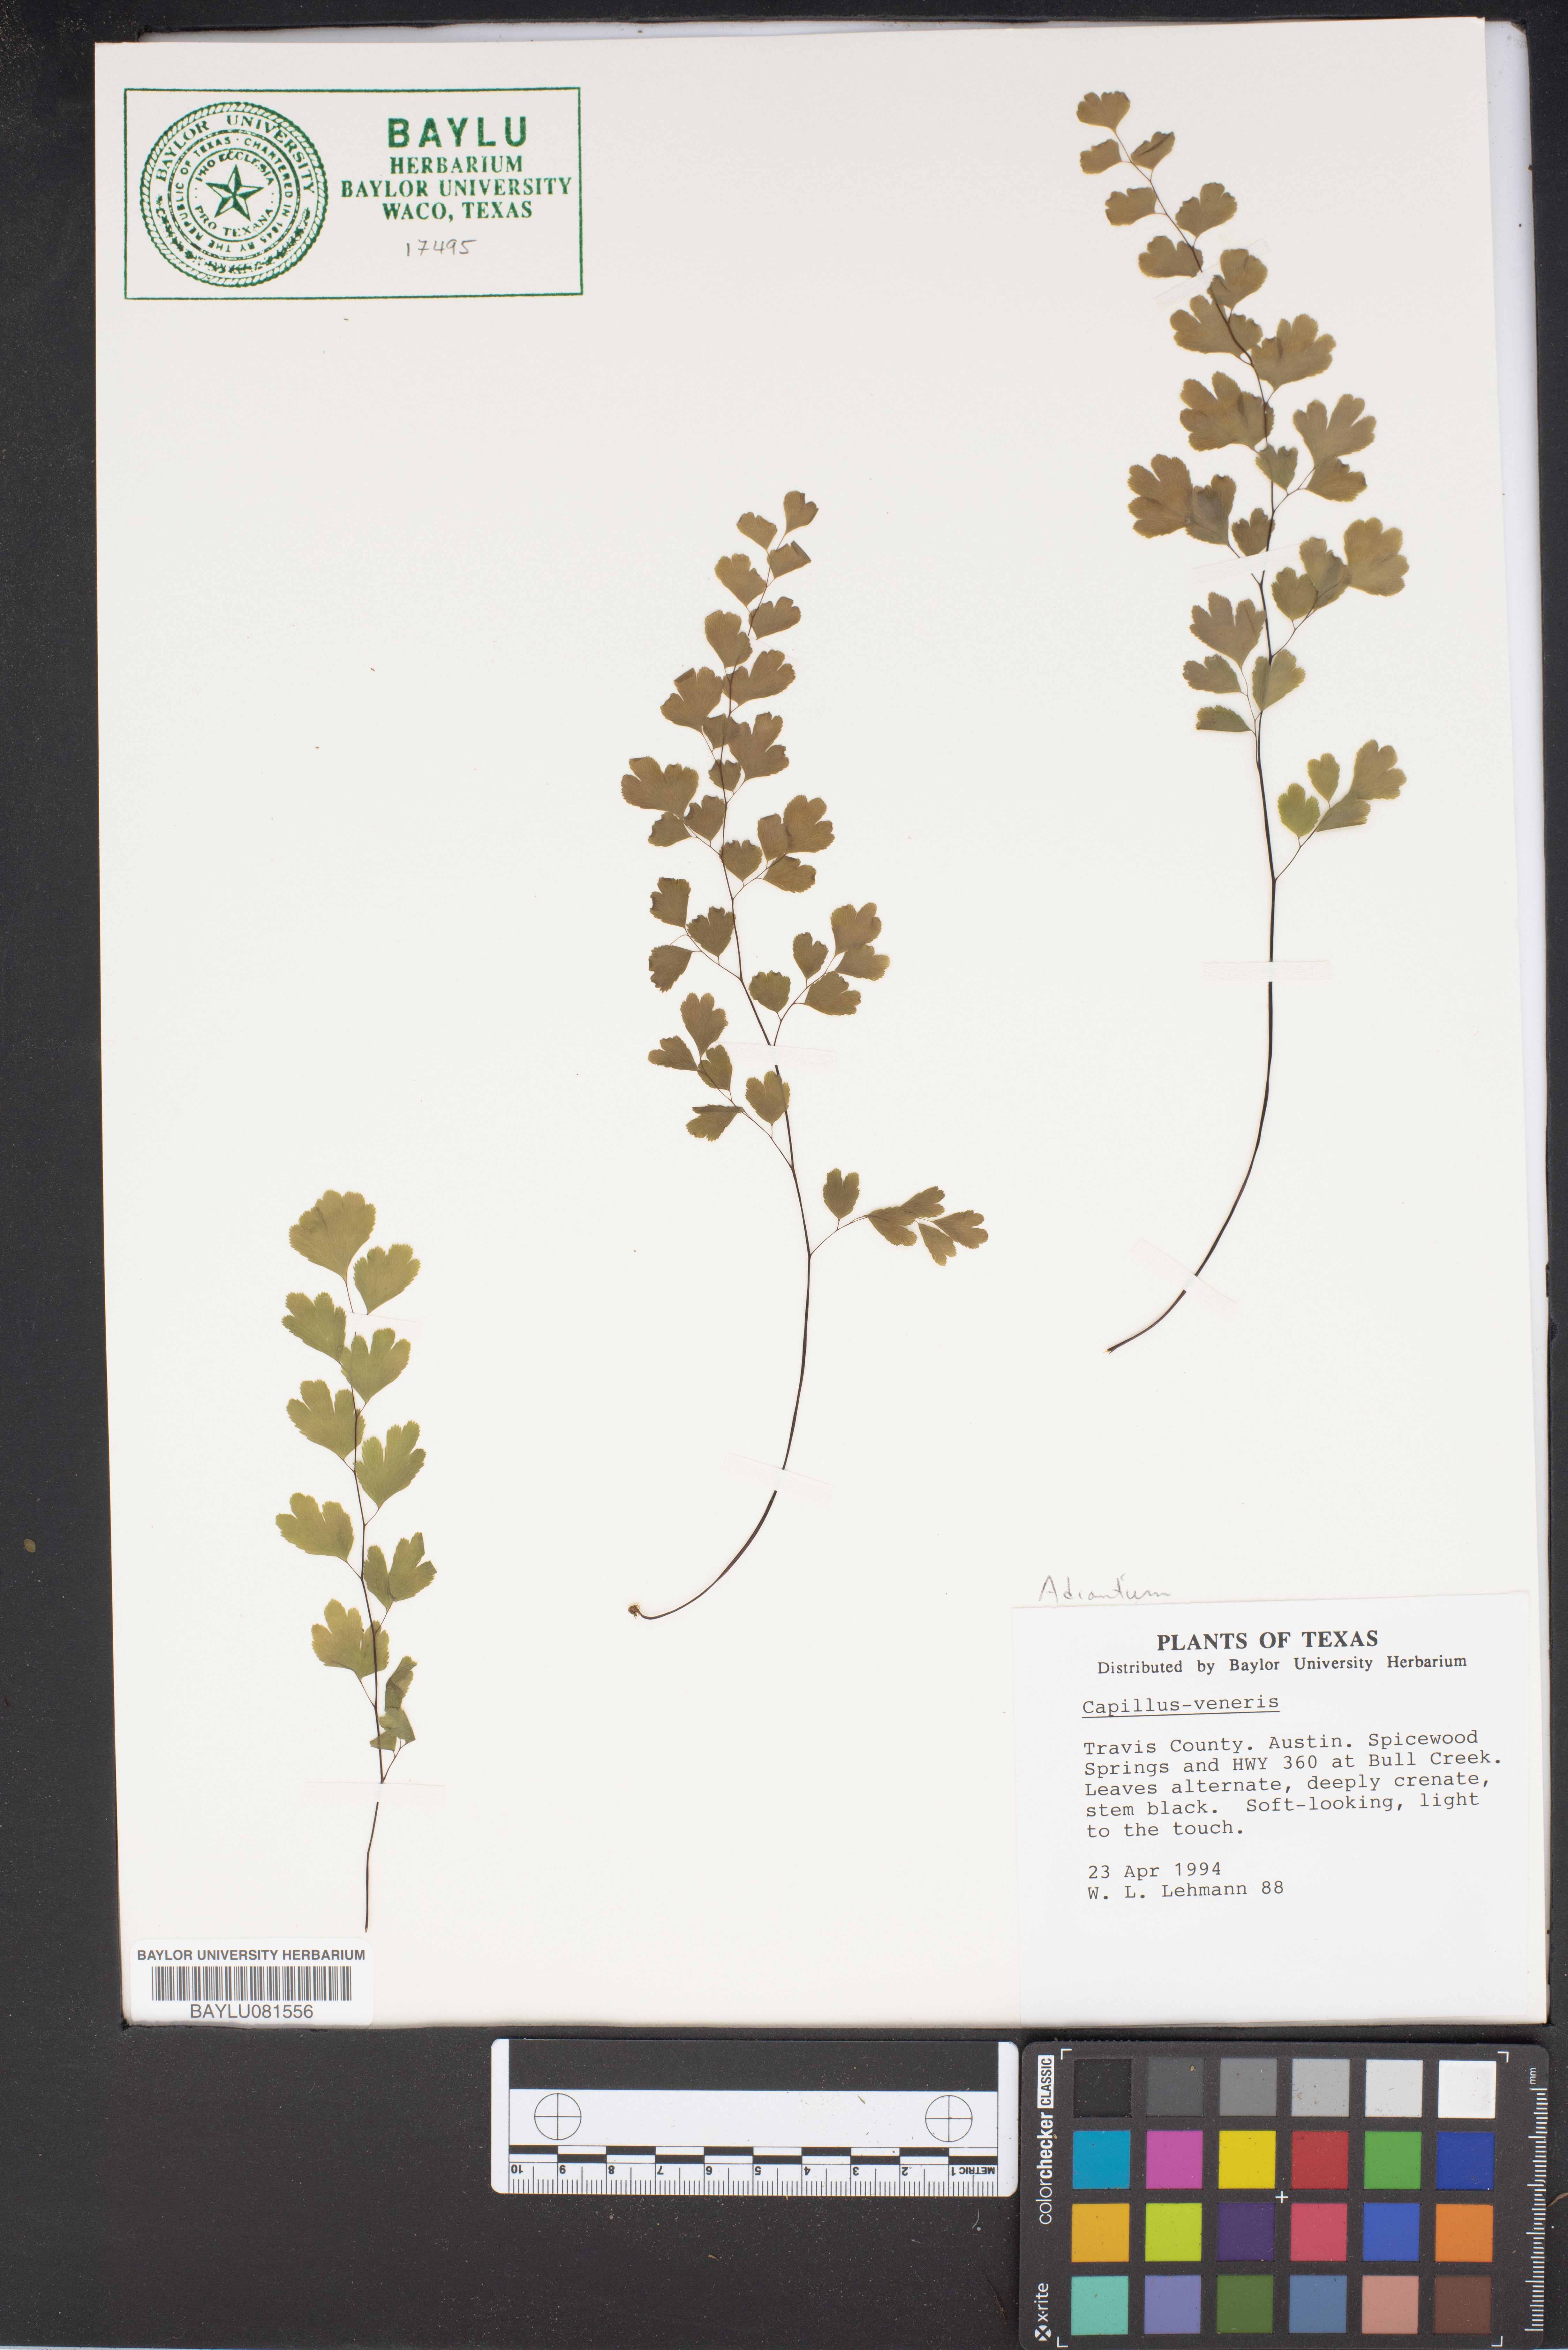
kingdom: Plantae
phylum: Tracheophyta
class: Polypodiopsida
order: Polypodiales
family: Pteridaceae
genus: Adiantum
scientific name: Adiantum capillus-veneris
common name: Maidenhair fern
